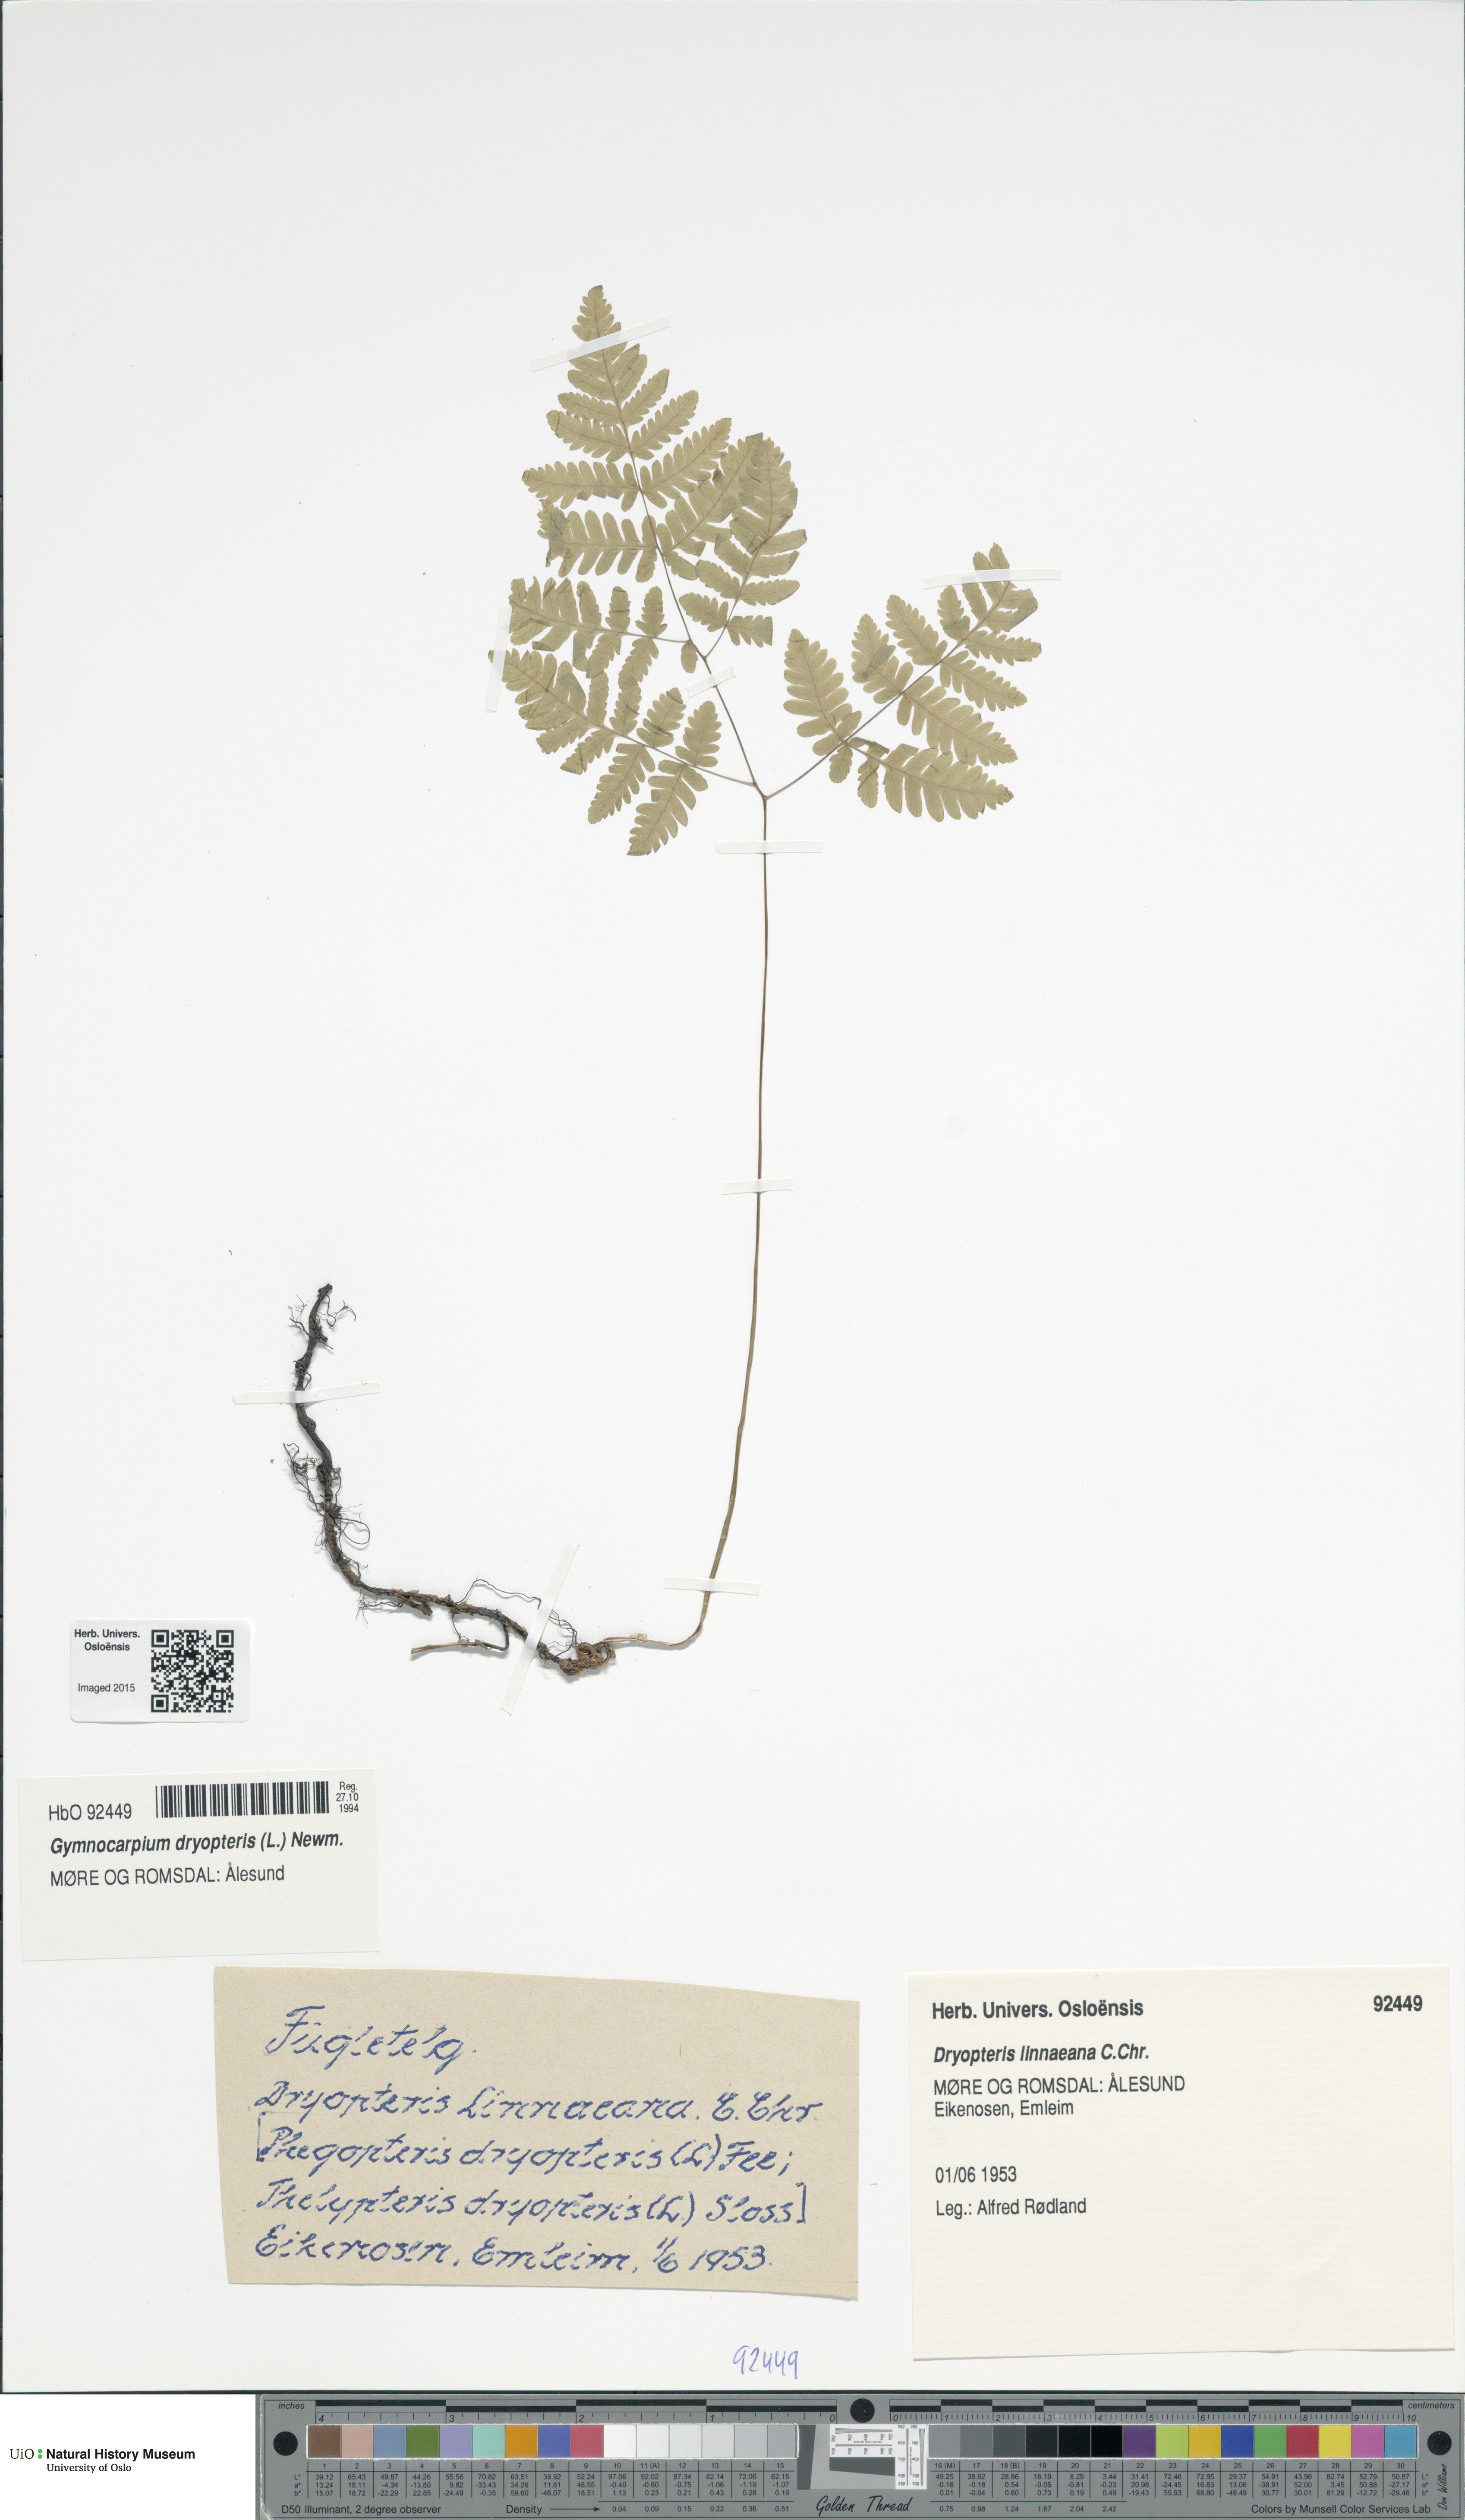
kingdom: Plantae
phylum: Tracheophyta
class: Polypodiopsida
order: Polypodiales
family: Cystopteridaceae
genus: Gymnocarpium
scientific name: Gymnocarpium dryopteris
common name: Oak fern
